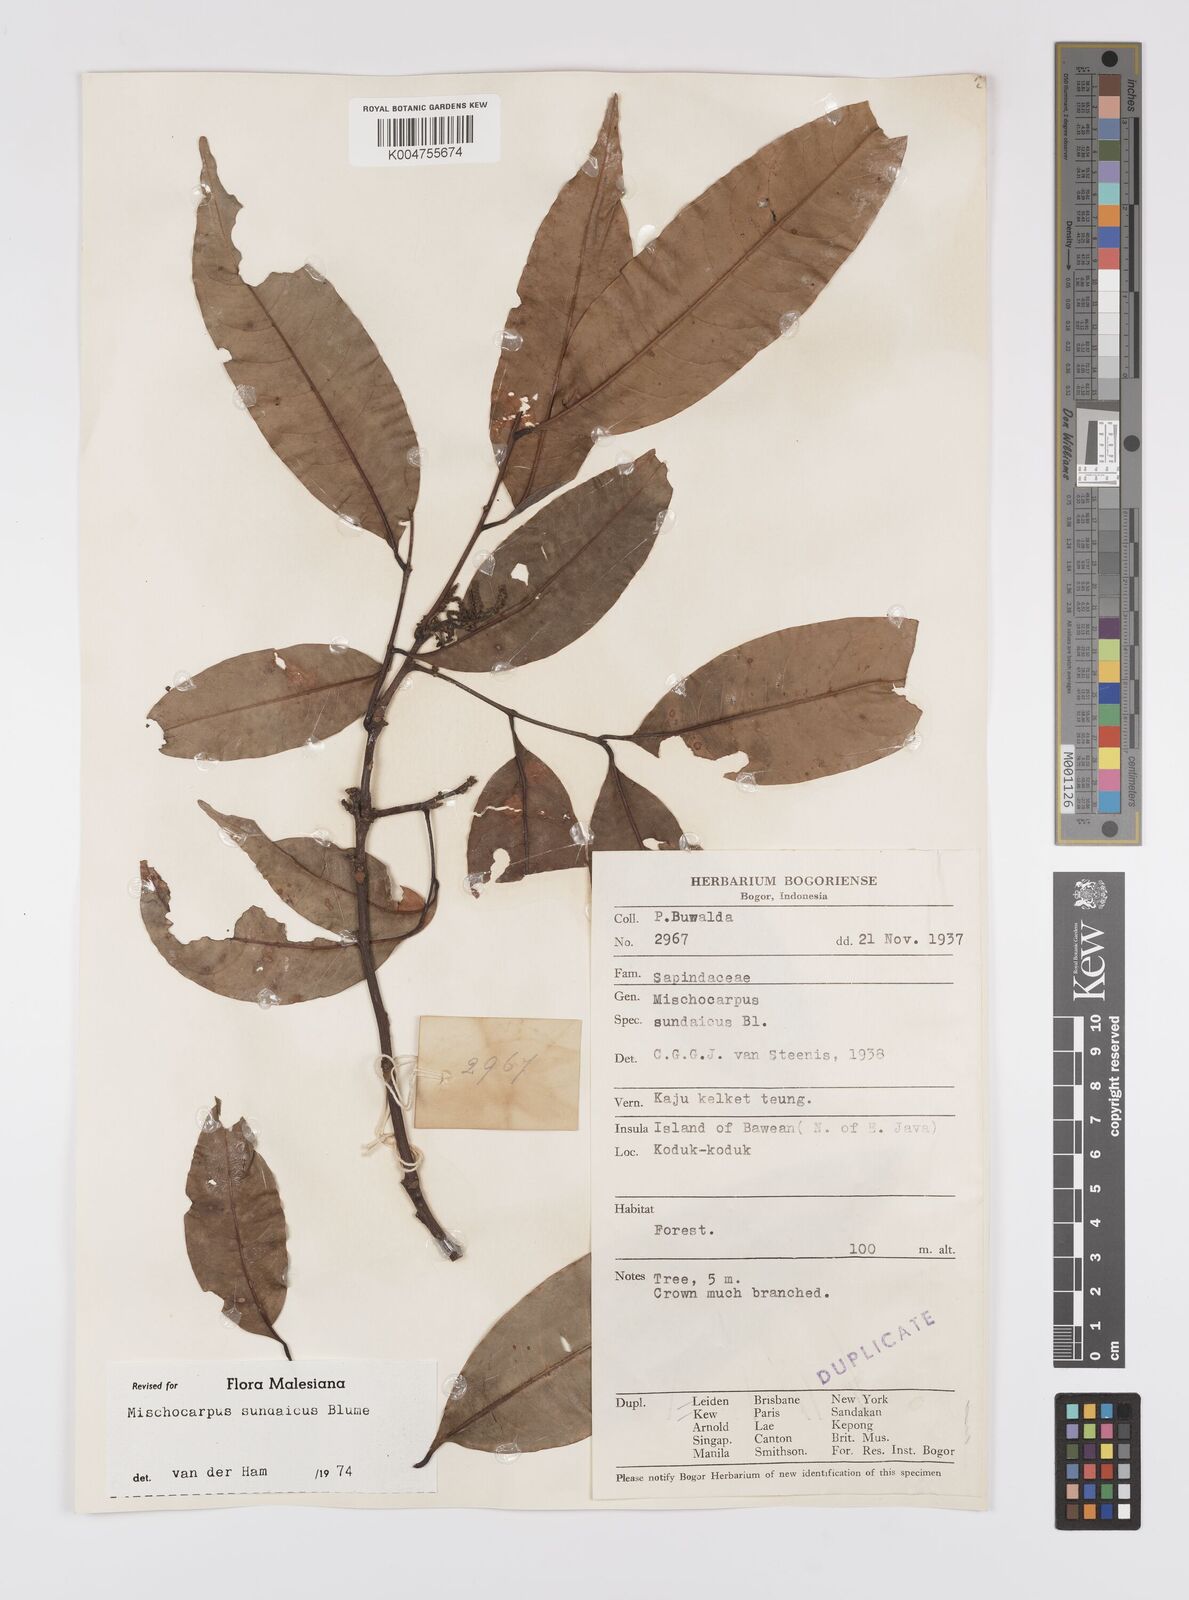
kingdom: Plantae
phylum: Tracheophyta
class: Magnoliopsida
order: Sapindales
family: Sapindaceae
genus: Mischocarpus
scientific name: Mischocarpus sundaicus
